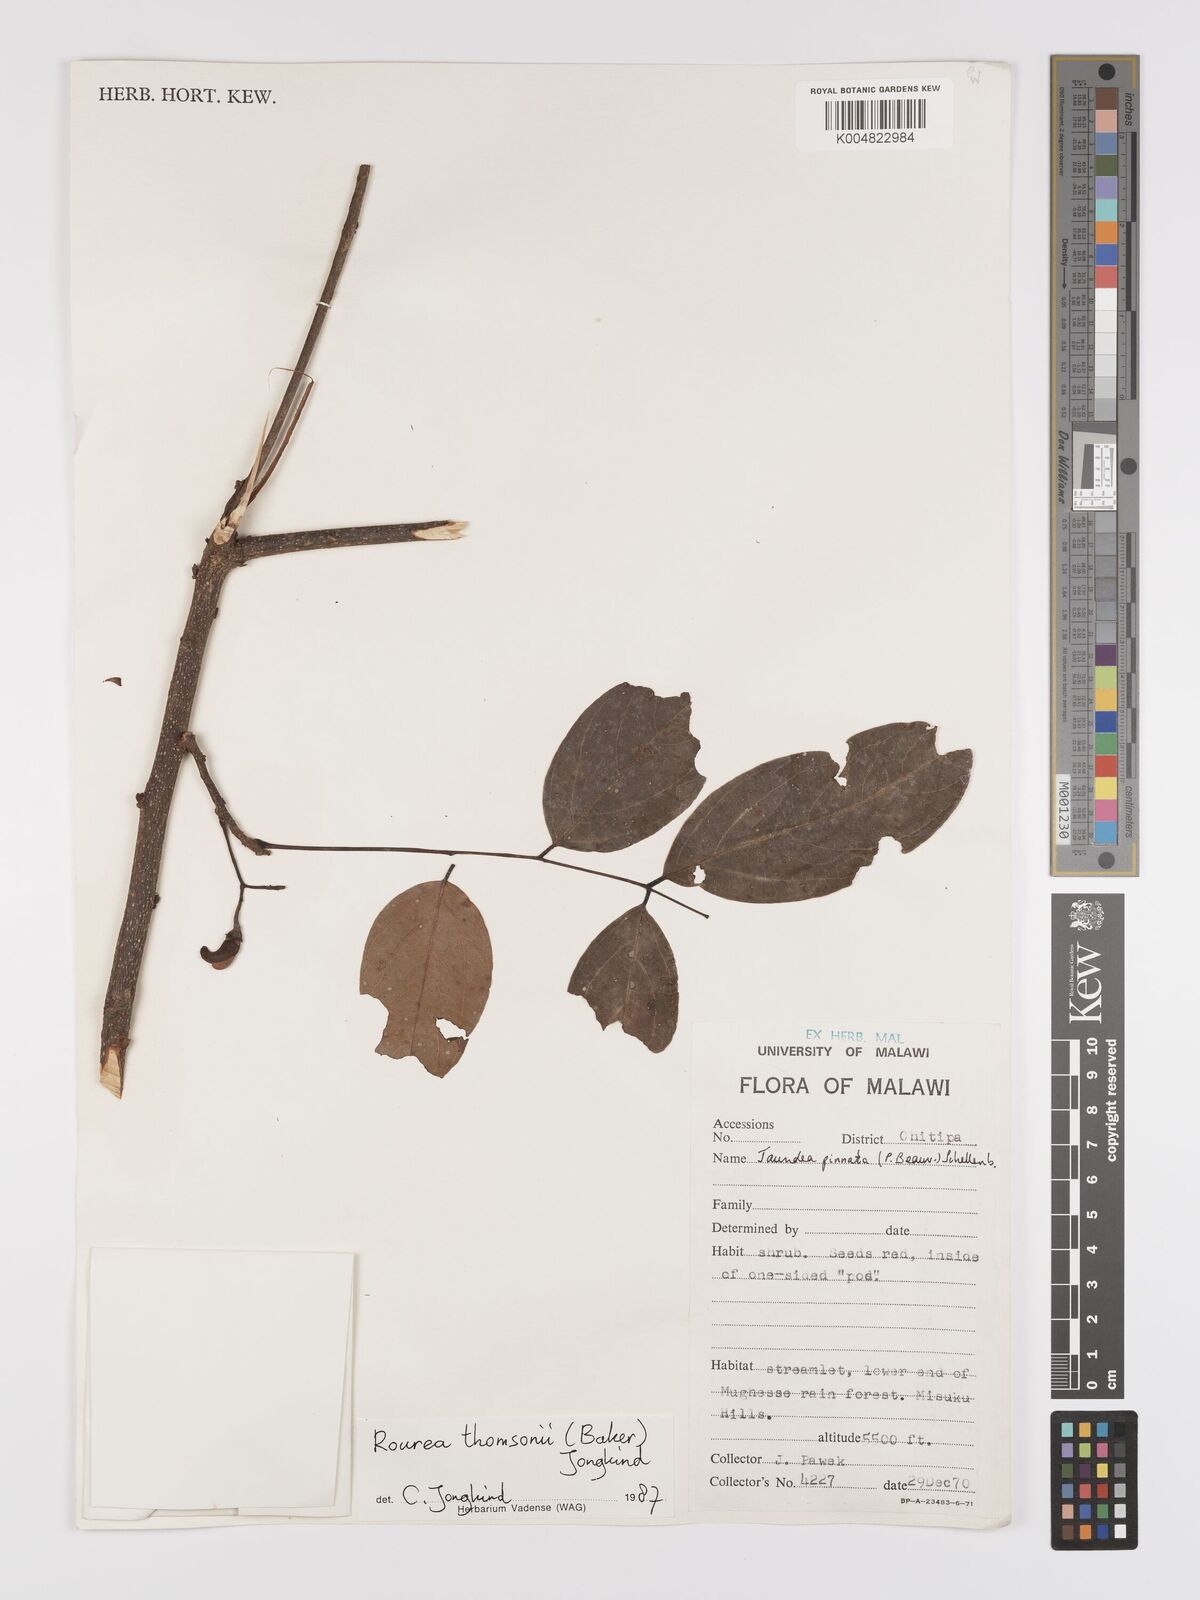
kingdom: Plantae
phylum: Tracheophyta
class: Magnoliopsida
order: Oxalidales
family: Connaraceae
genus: Rourea
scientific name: Rourea pinnata
